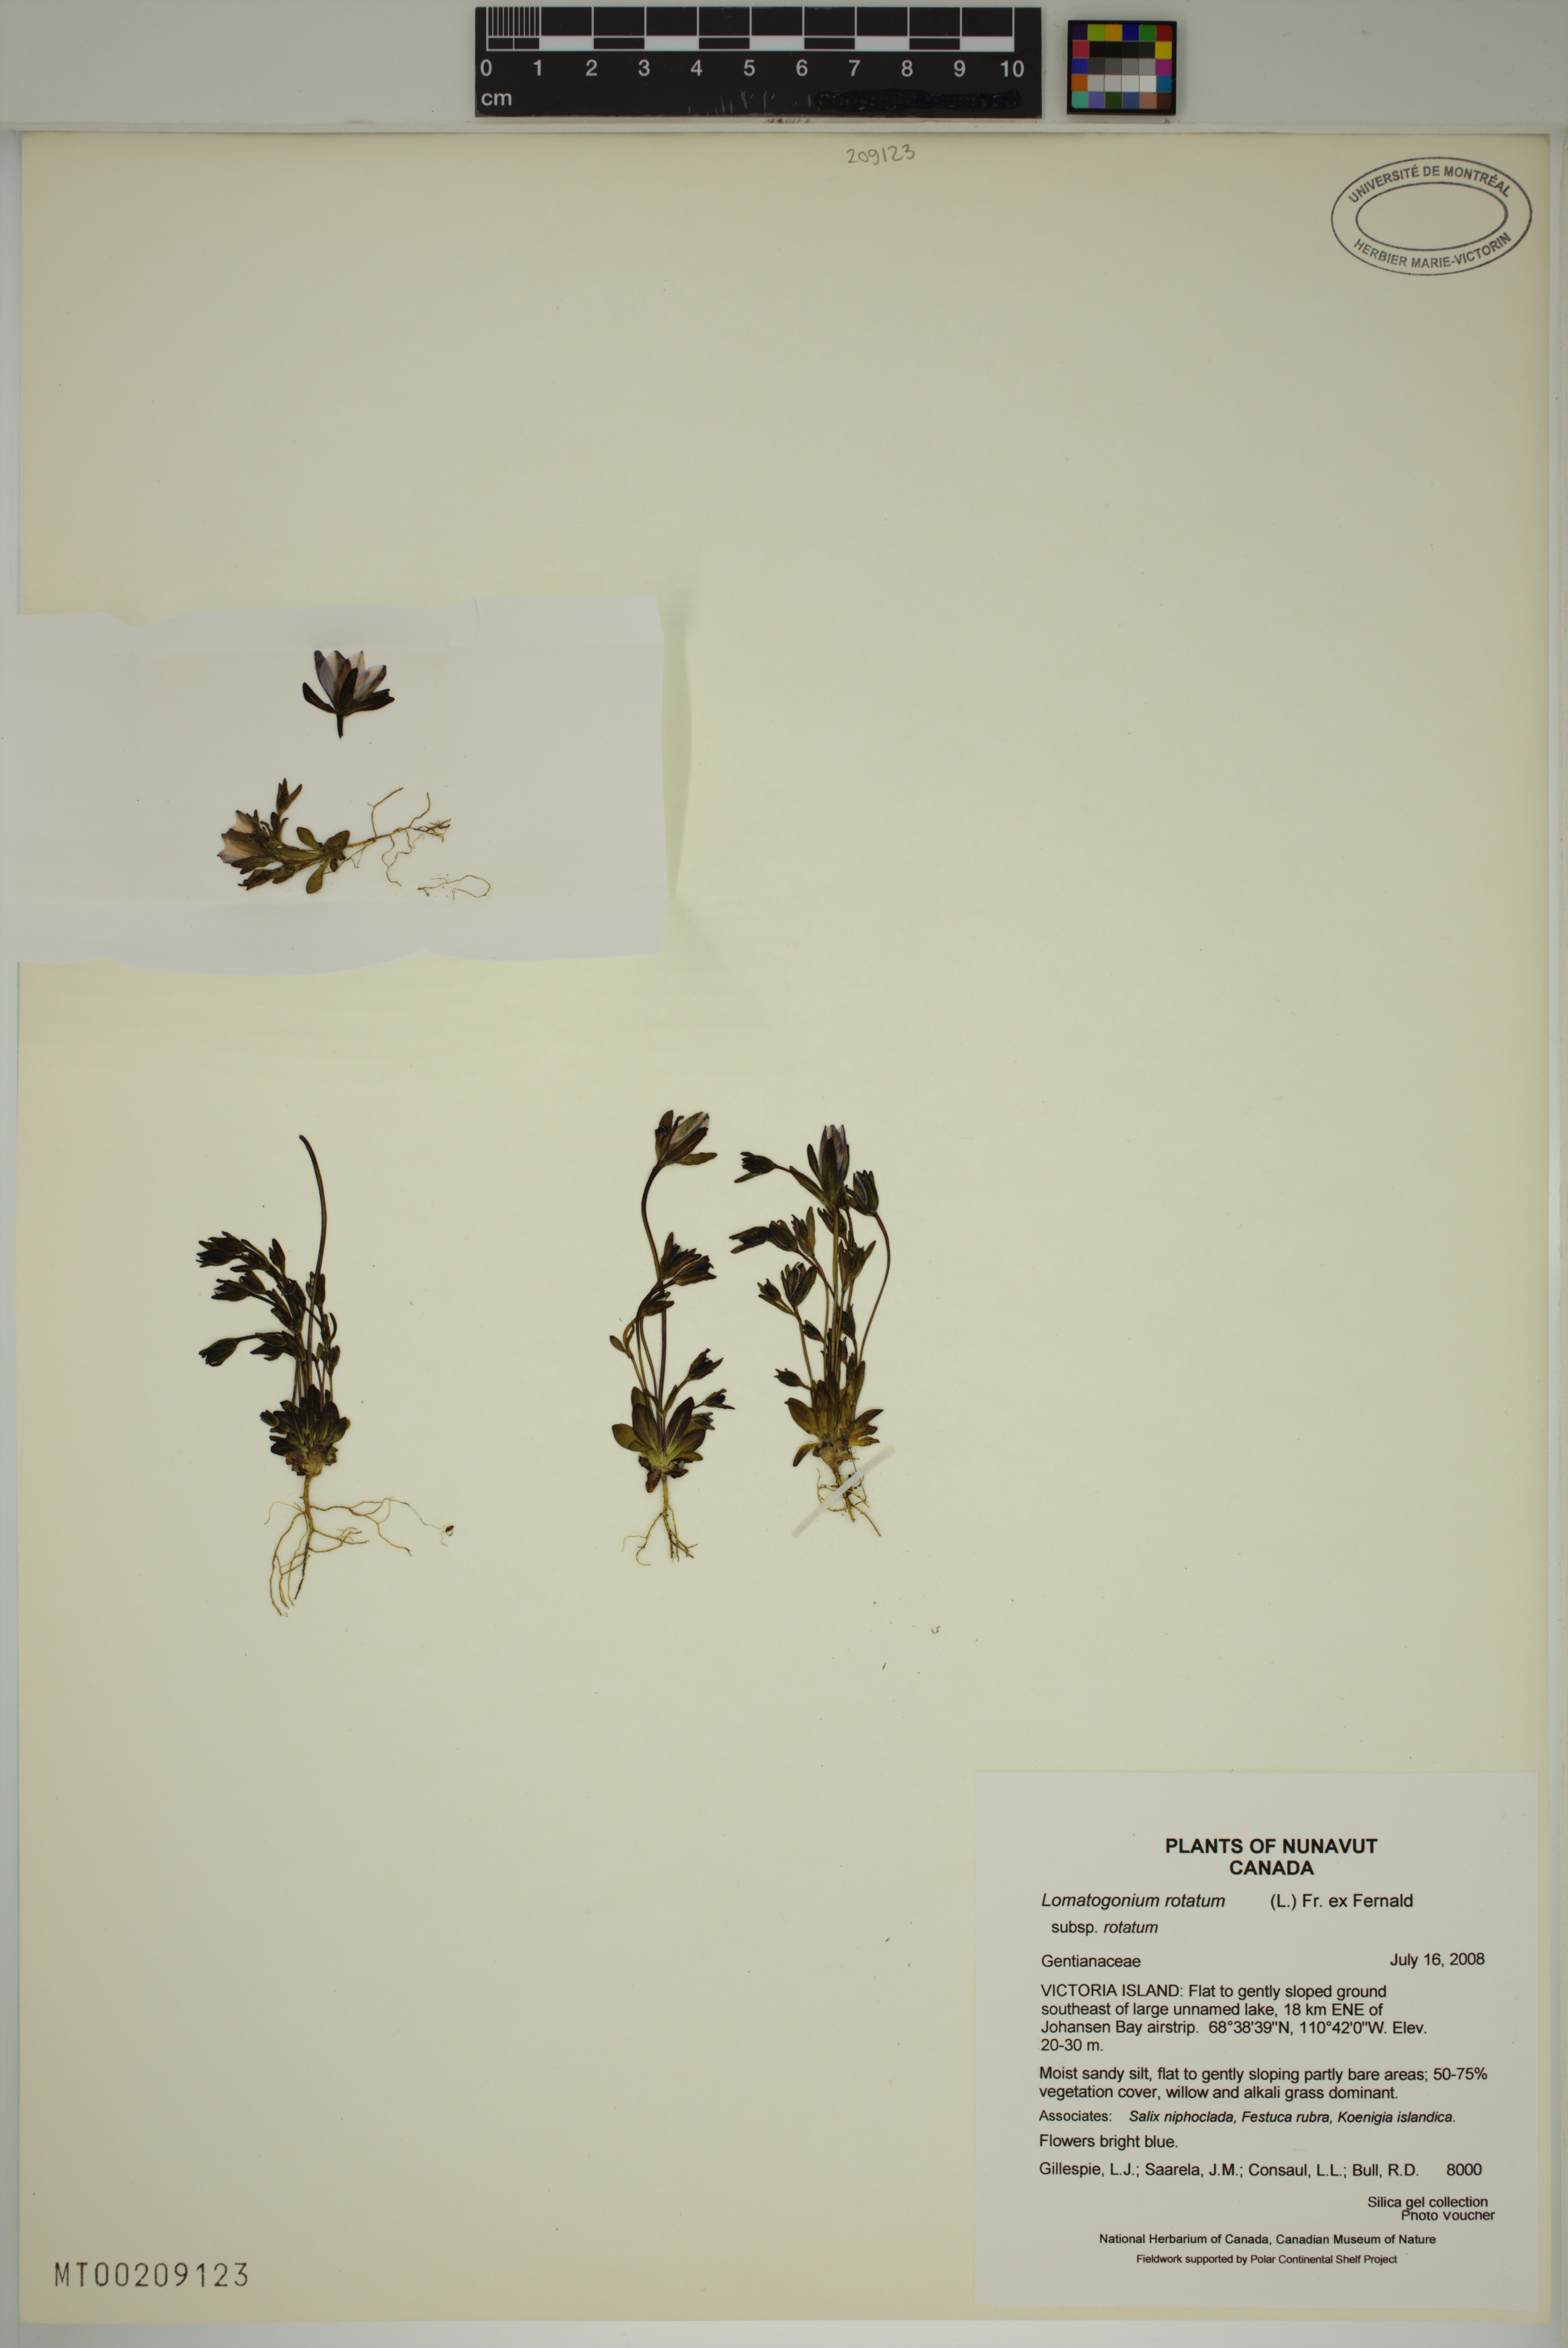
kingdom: Plantae
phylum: Tracheophyta
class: Magnoliopsida
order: Gentianales
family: Gentianaceae
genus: Lomatogonium
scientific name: Lomatogonium rotatum
